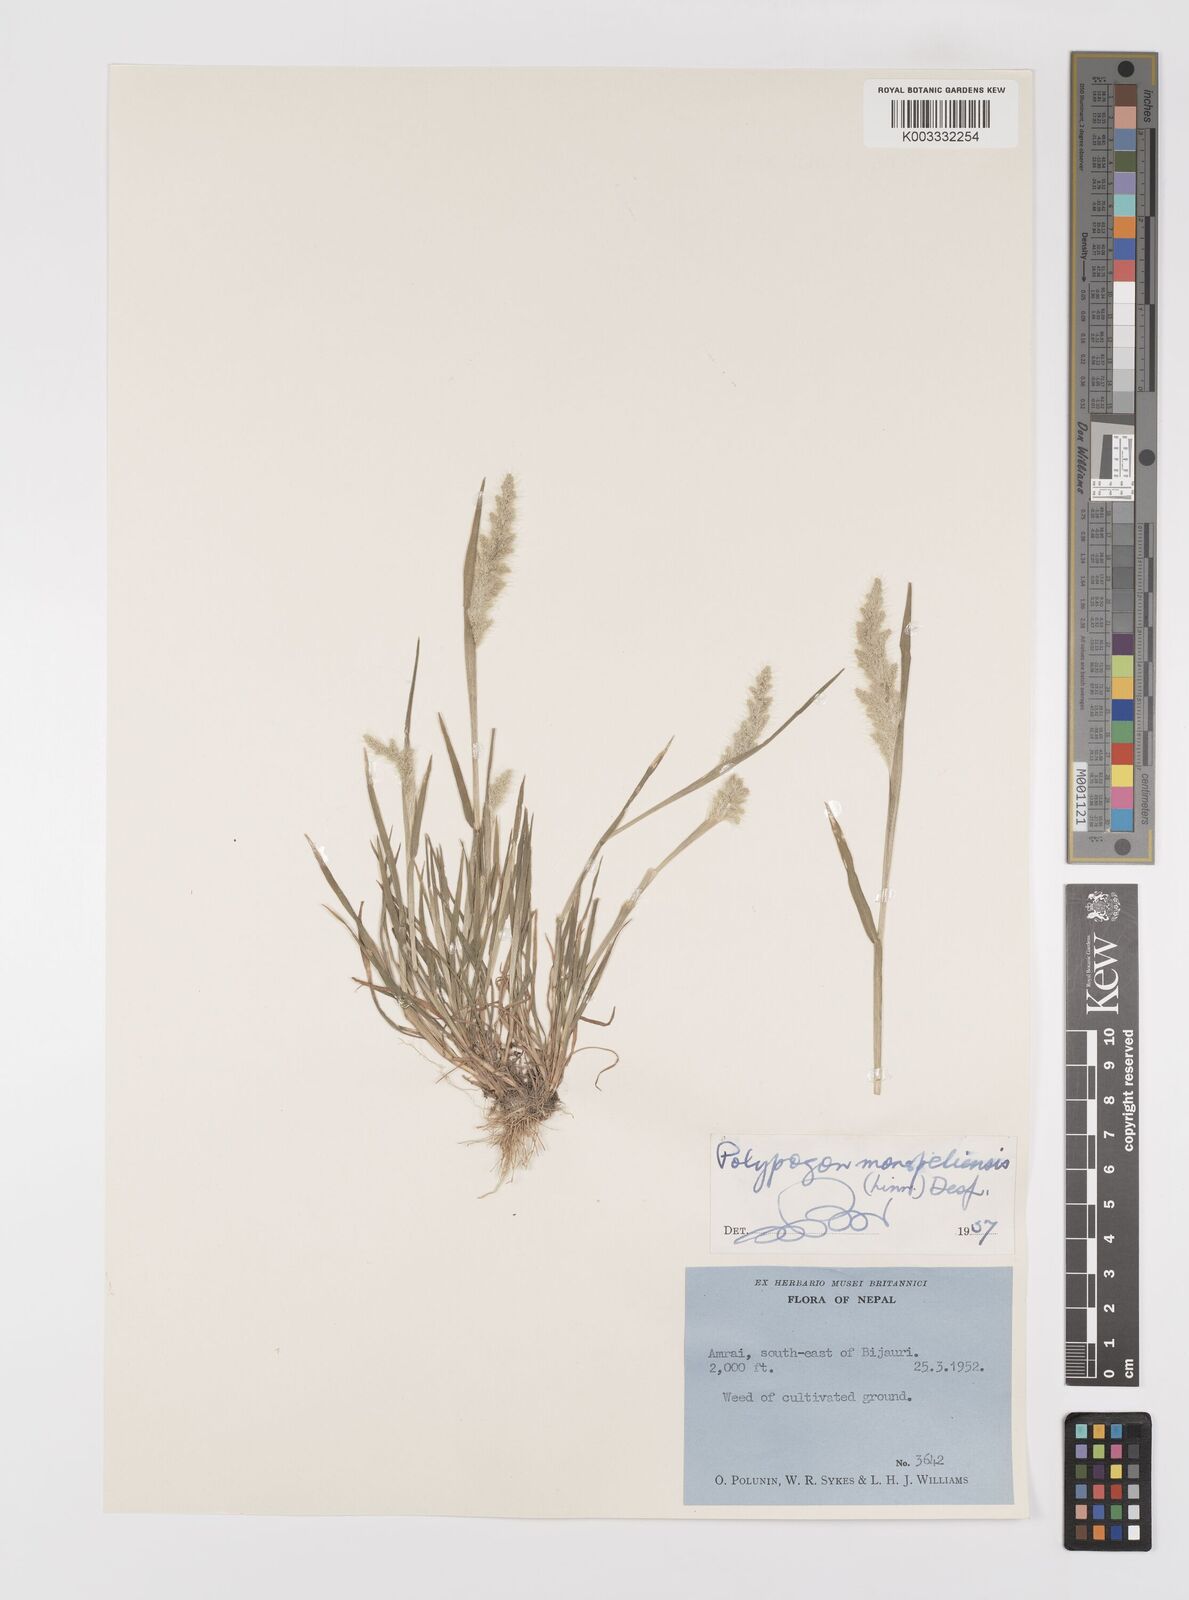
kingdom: Plantae
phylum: Tracheophyta
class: Liliopsida
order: Poales
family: Poaceae
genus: Polypogon
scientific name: Polypogon monspeliensis
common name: Annual rabbitsfoot grass
